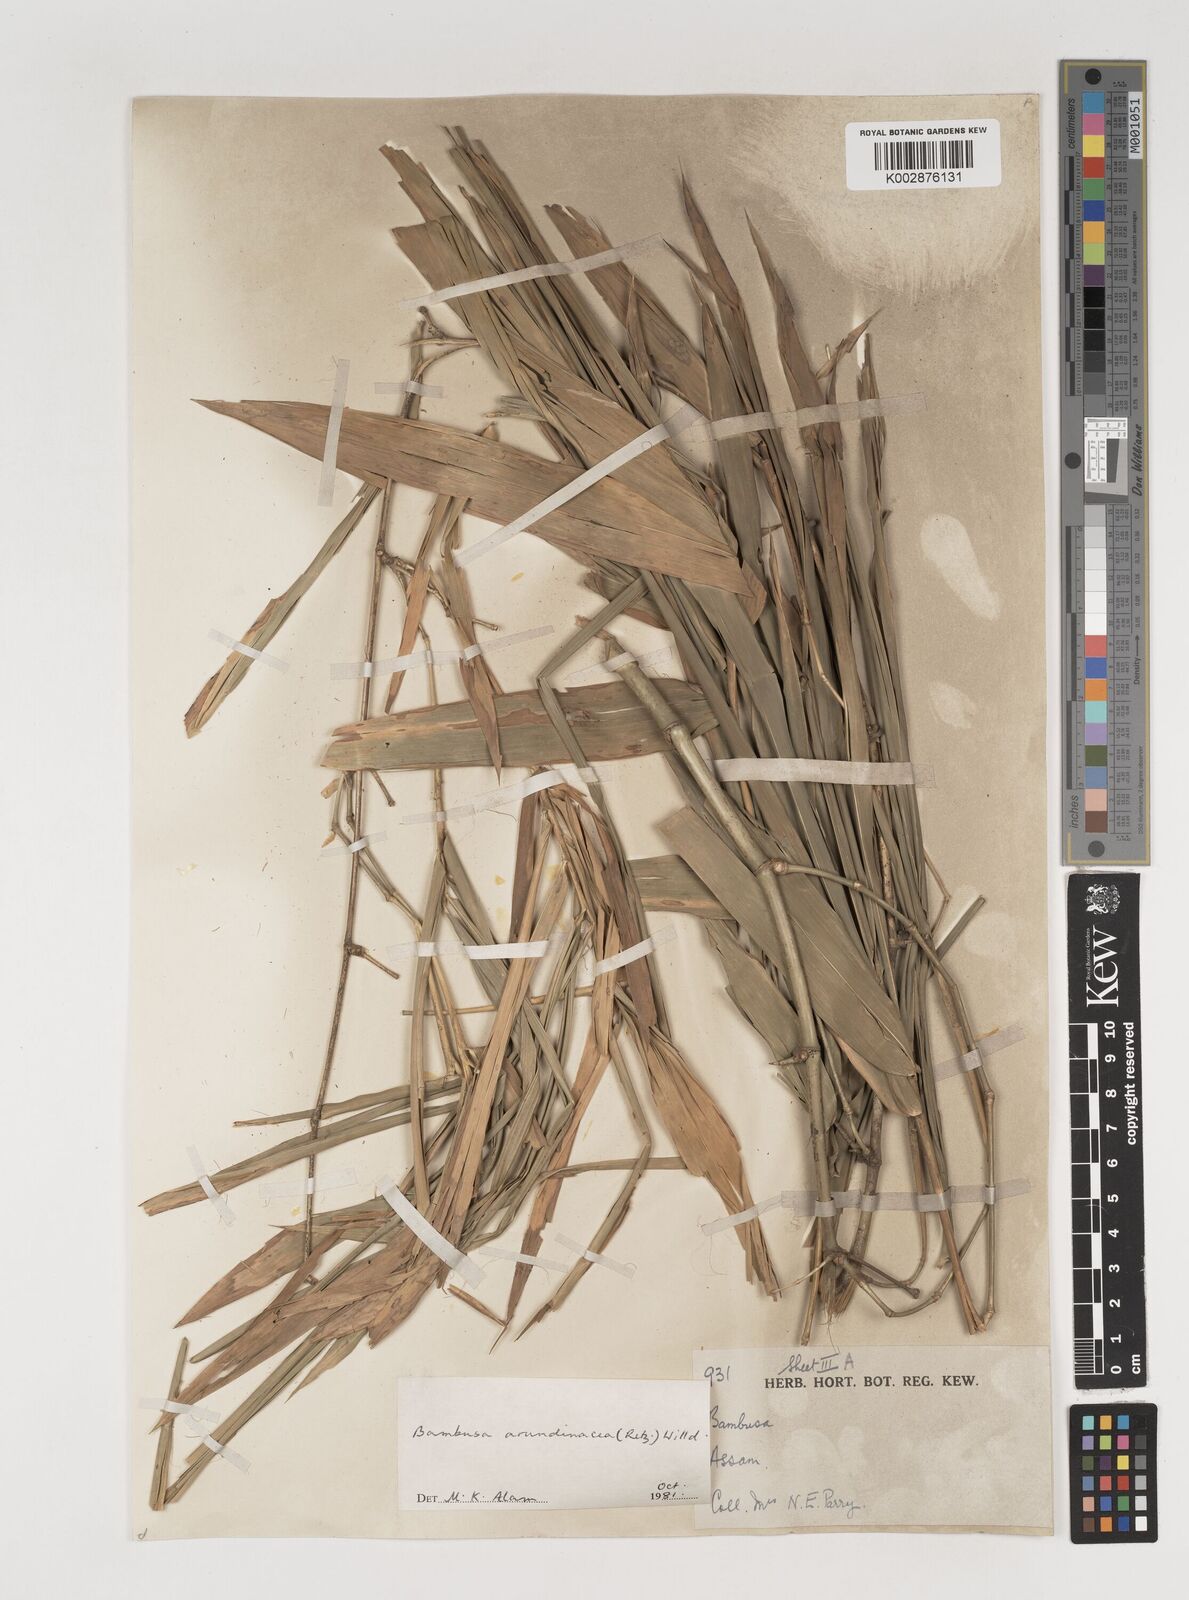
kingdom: Plantae
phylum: Tracheophyta
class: Liliopsida
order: Poales
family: Poaceae
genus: Bambusa
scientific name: Bambusa bambos
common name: Indian thorny bamboo
